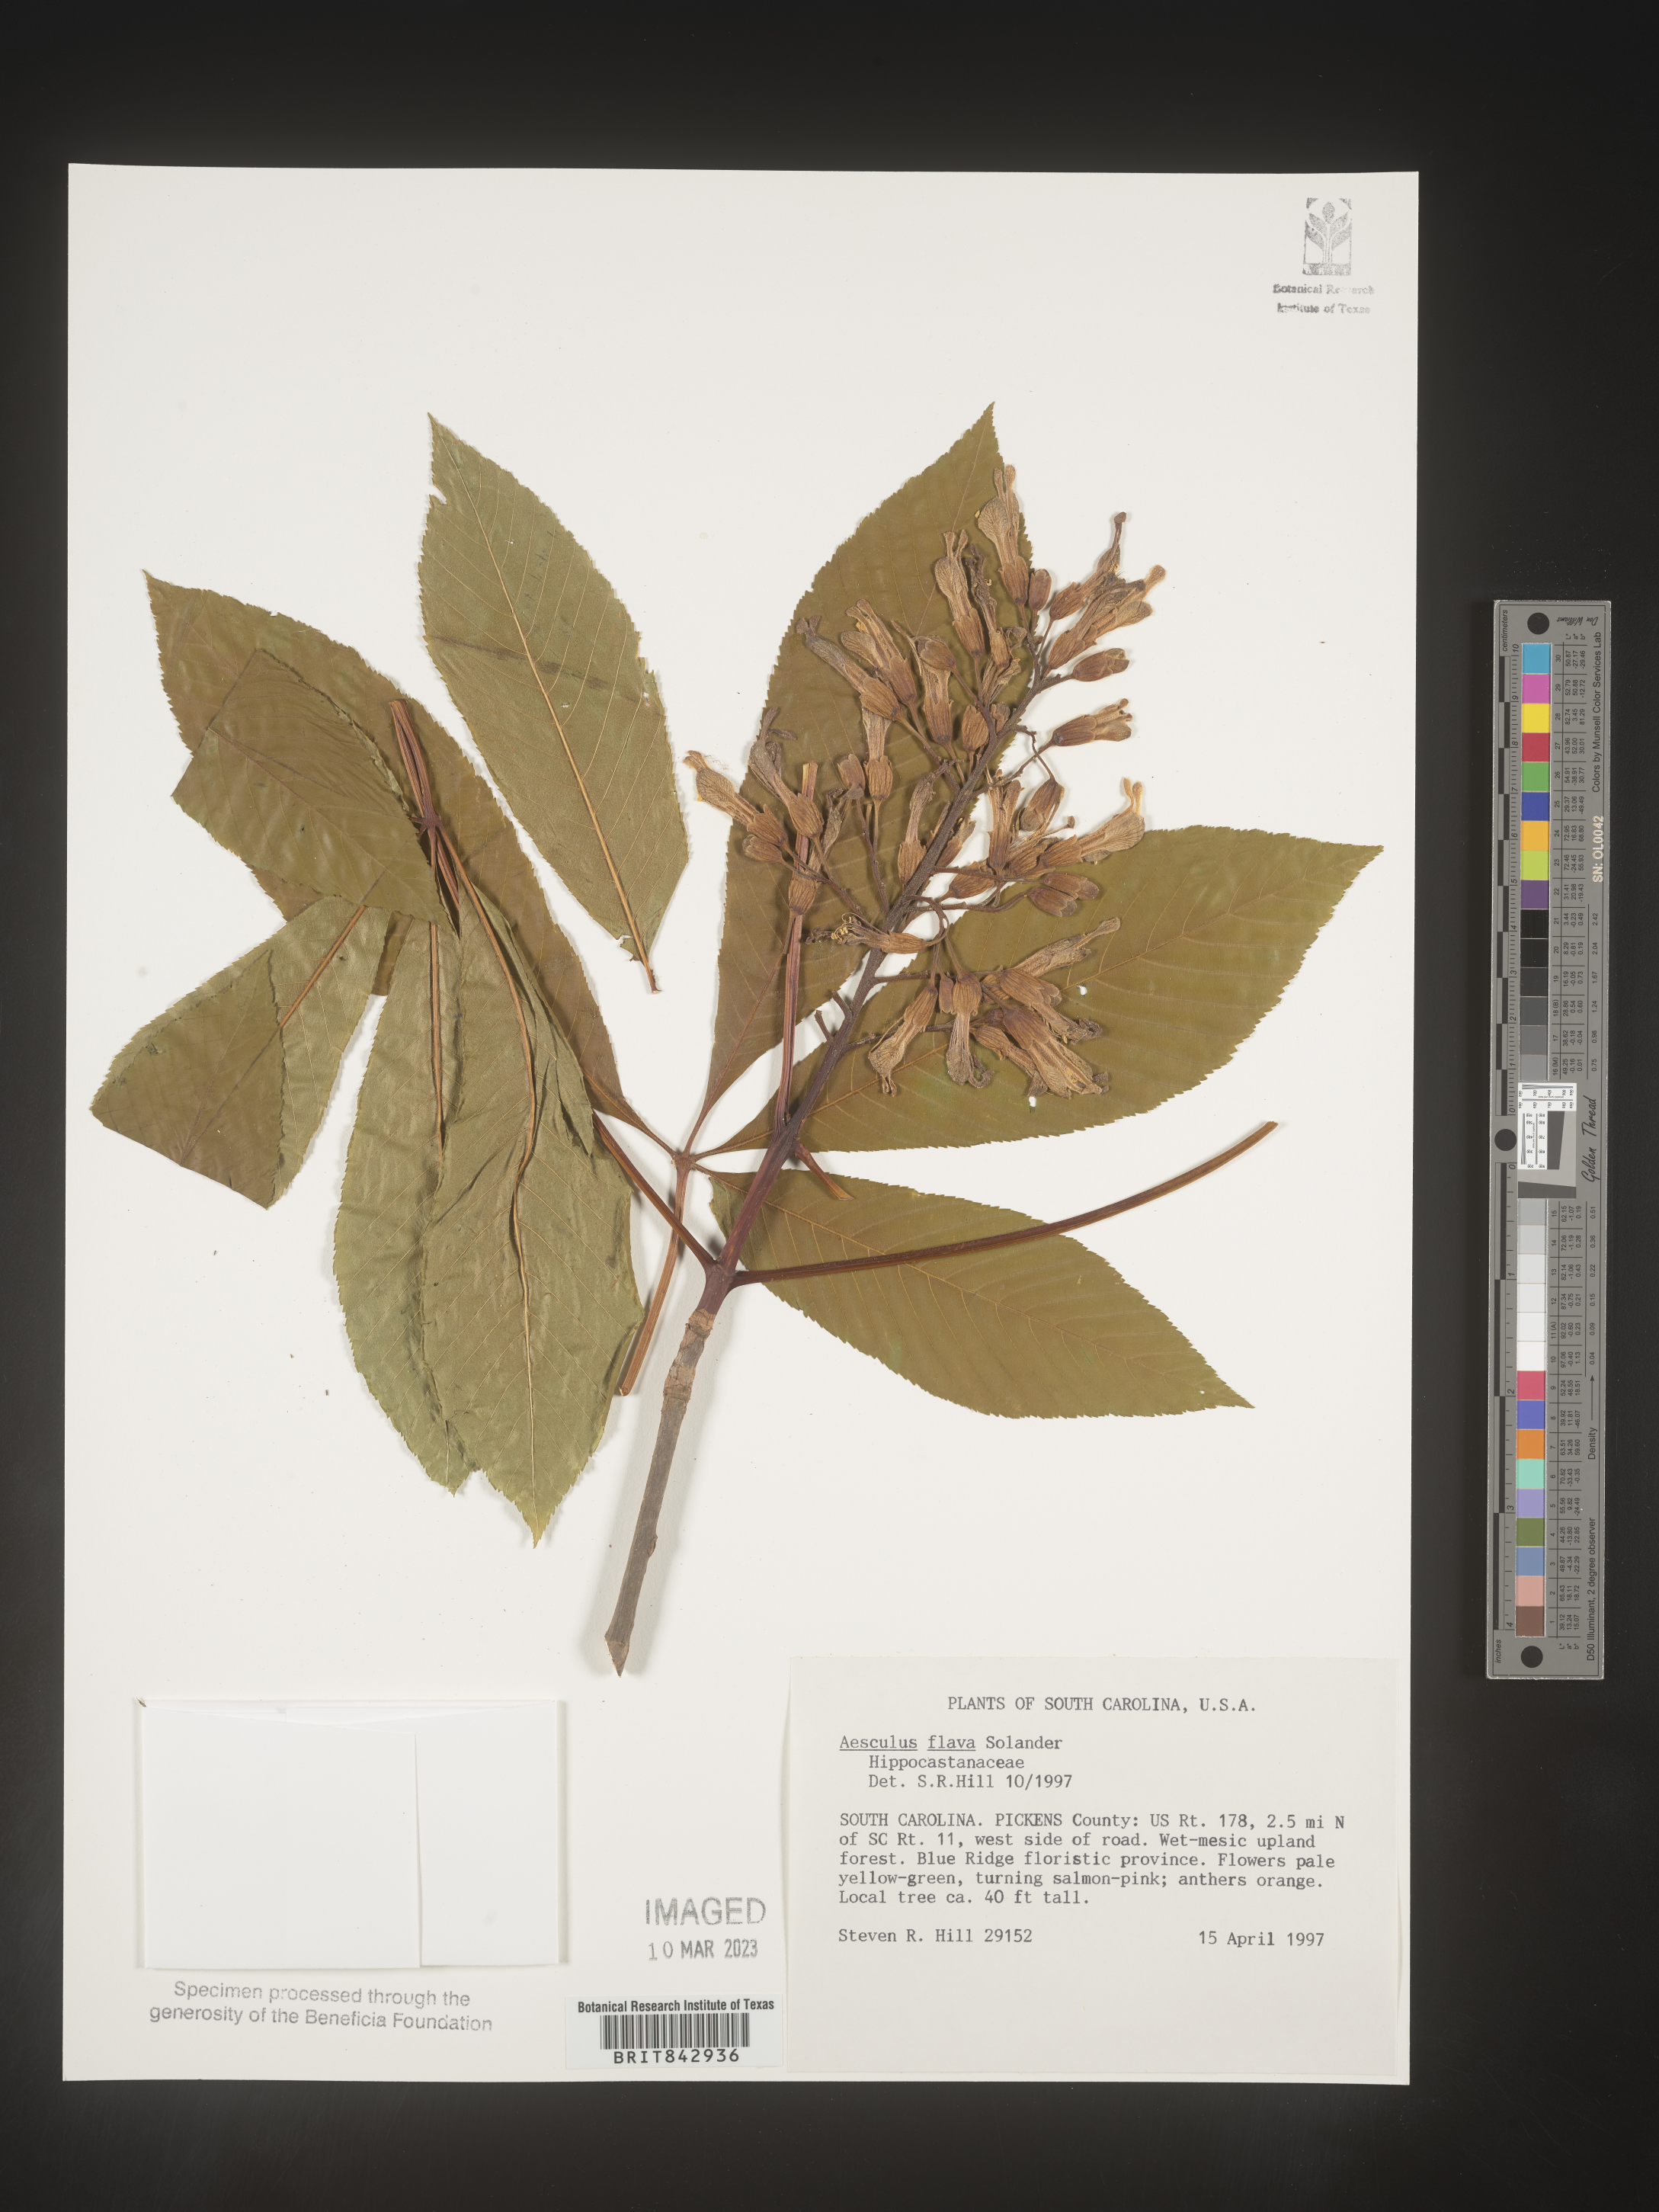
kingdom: Plantae
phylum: Tracheophyta
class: Magnoliopsida
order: Sapindales
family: Sapindaceae
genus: Aesculus
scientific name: Aesculus
